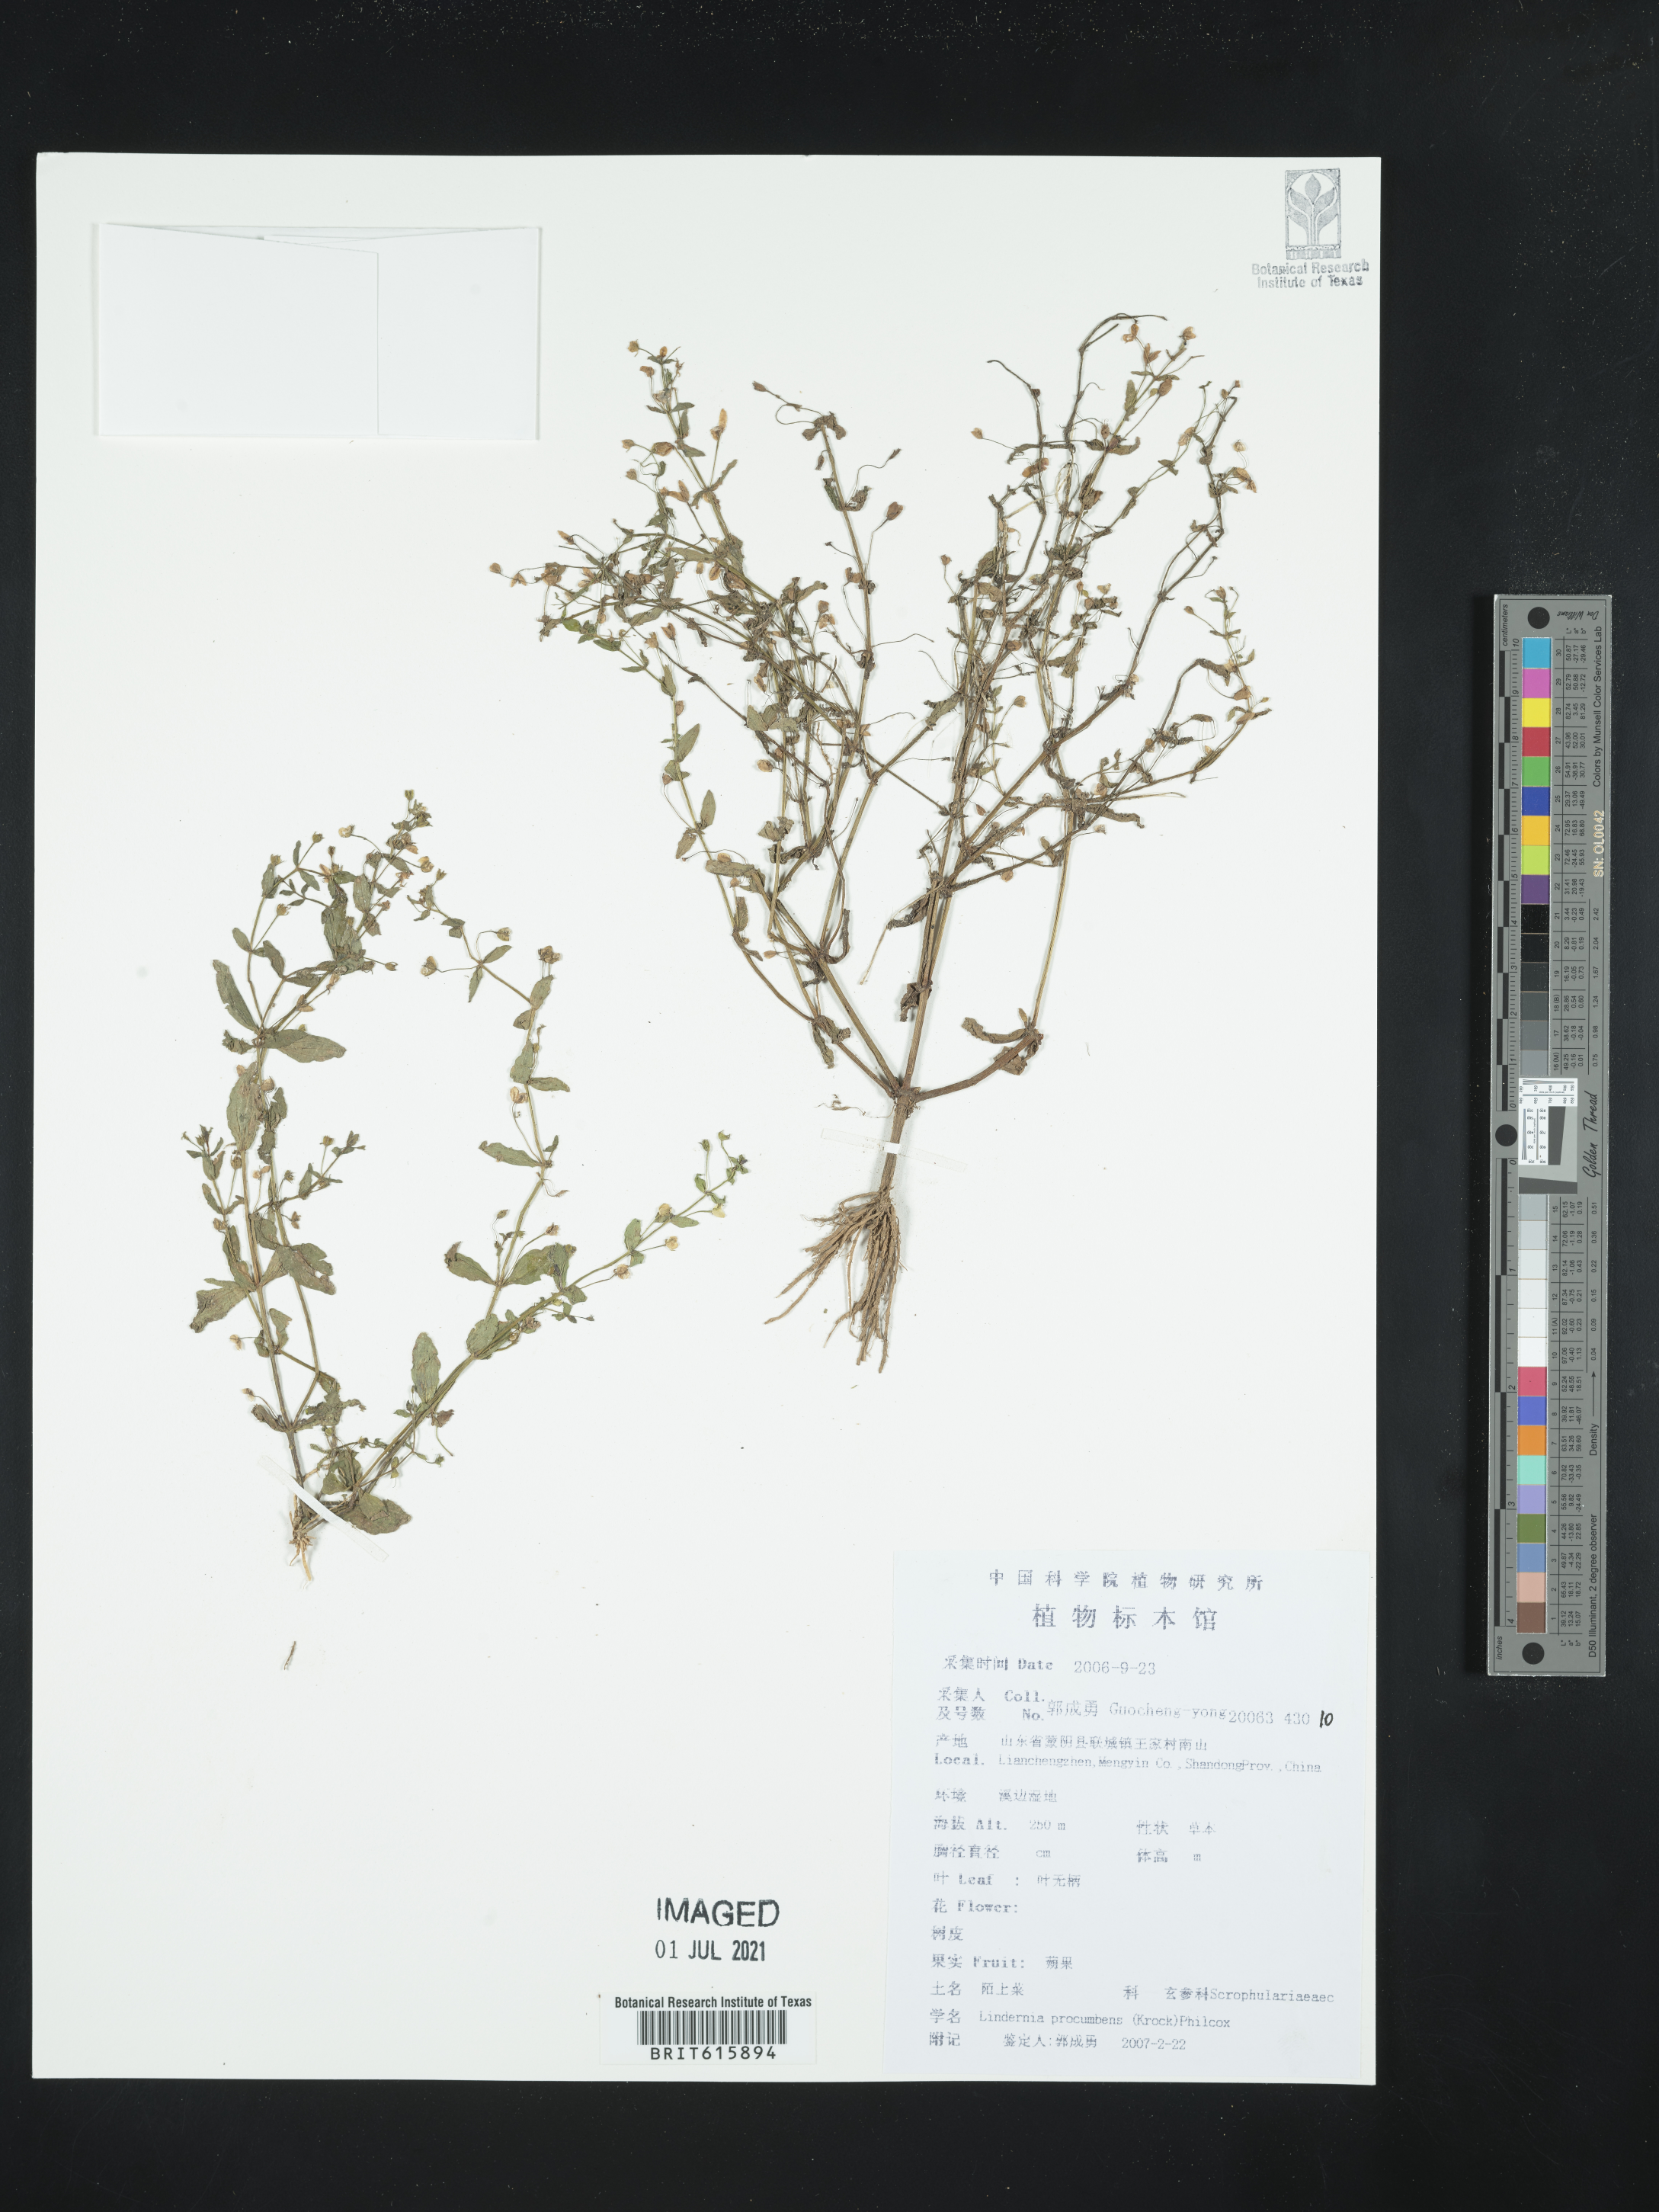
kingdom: Plantae
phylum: Tracheophyta
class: Magnoliopsida
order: Lamiales
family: Linderniaceae
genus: Lindernia
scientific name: Lindernia procumbens
